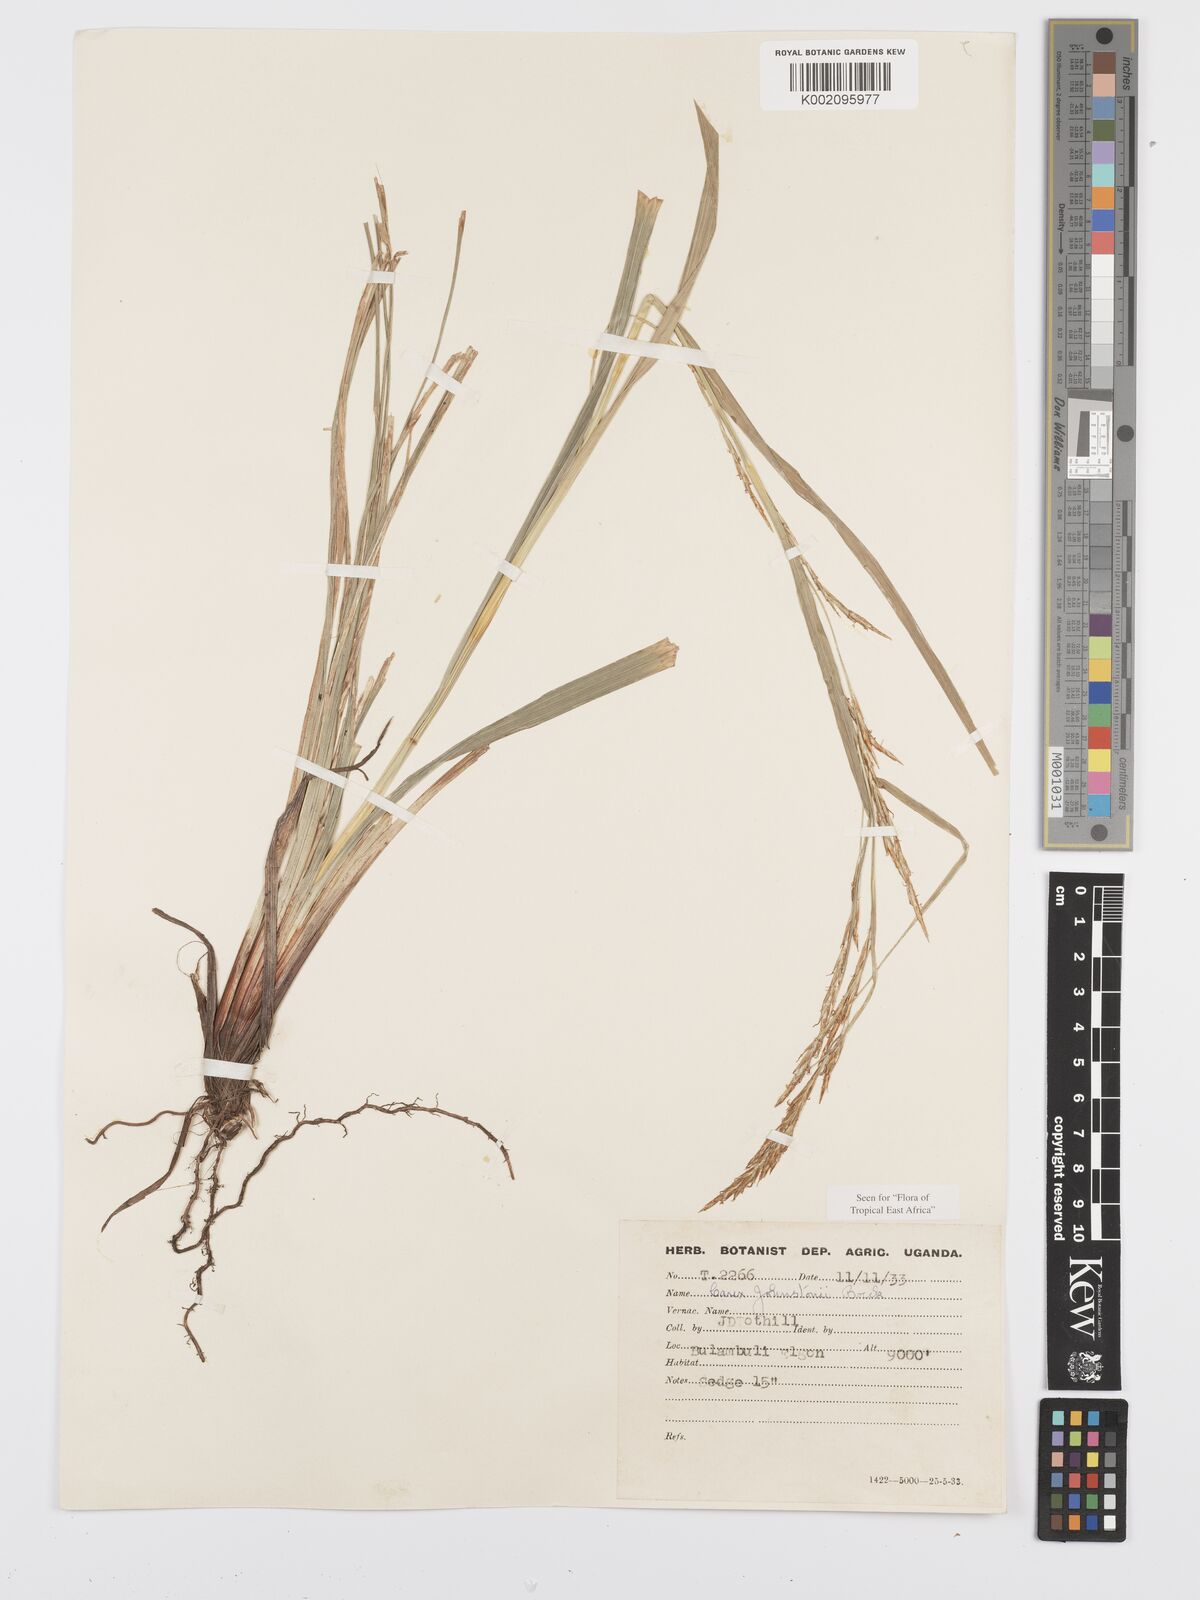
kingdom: Plantae
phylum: Tracheophyta
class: Liliopsida
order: Poales
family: Cyperaceae
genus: Carex
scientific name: Carex johnstonii
